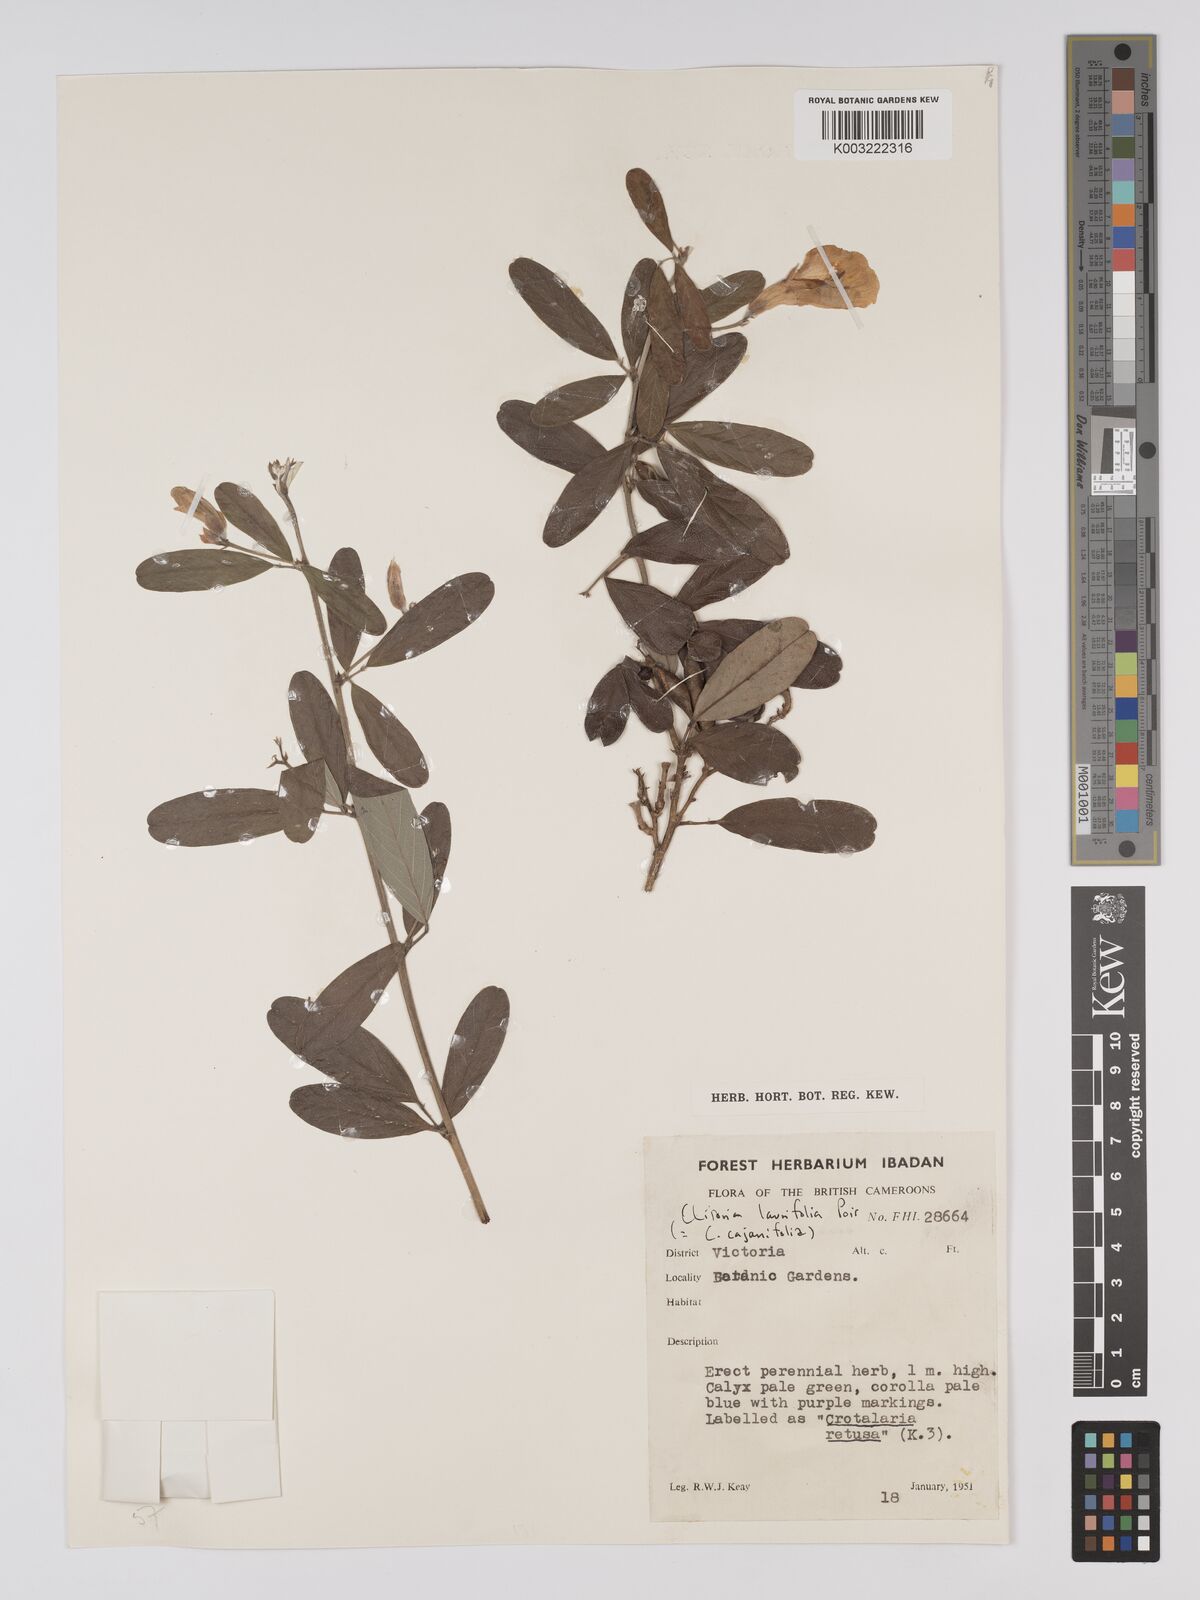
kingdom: Plantae
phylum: Tracheophyta
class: Magnoliopsida
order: Fabales
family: Fabaceae
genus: Clitoria
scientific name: Clitoria laurifolia
